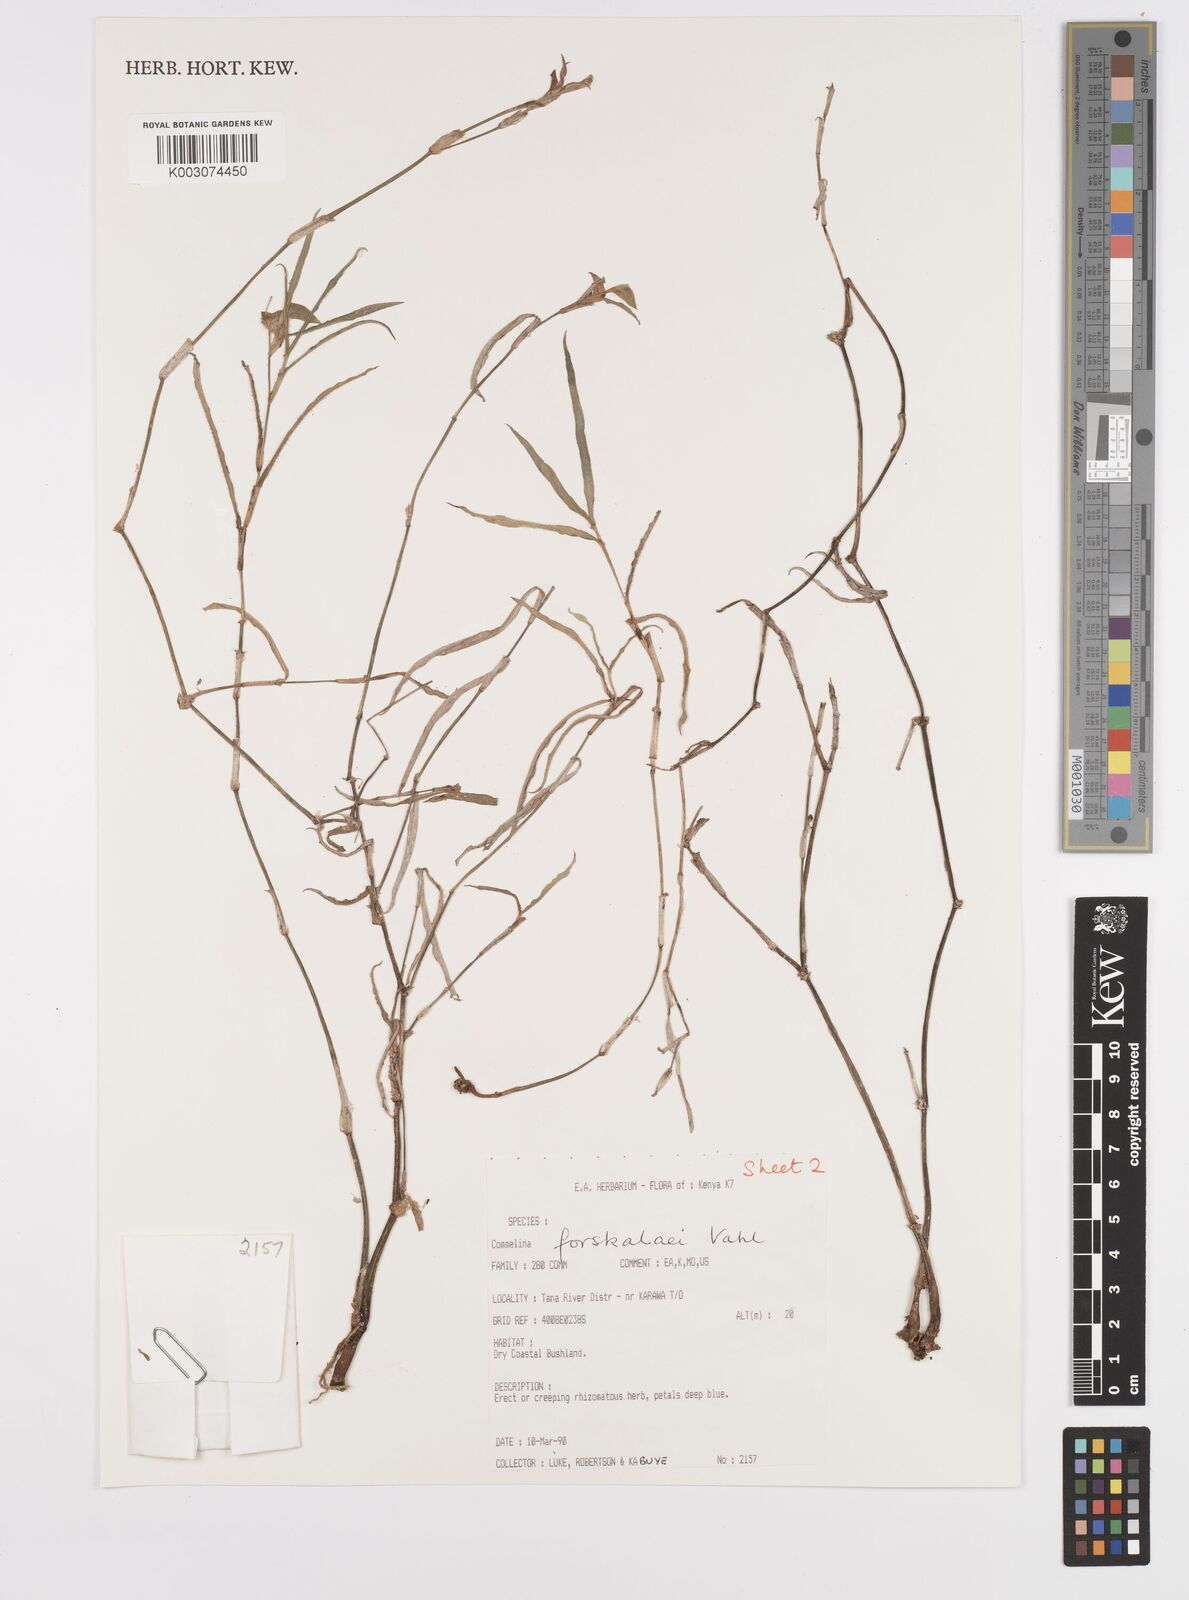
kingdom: Plantae
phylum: Tracheophyta
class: Liliopsida
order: Commelinales
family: Commelinaceae
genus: Commelina
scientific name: Commelina
